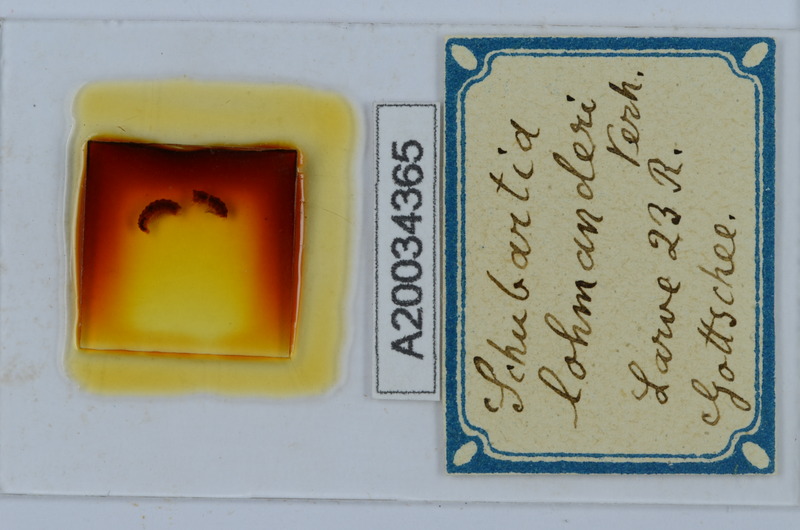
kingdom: Animalia
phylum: Arthropoda
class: Diplopoda
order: Chordeumatida
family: Attemsiidae
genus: Schubartia
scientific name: Schubartia lohmanderi
